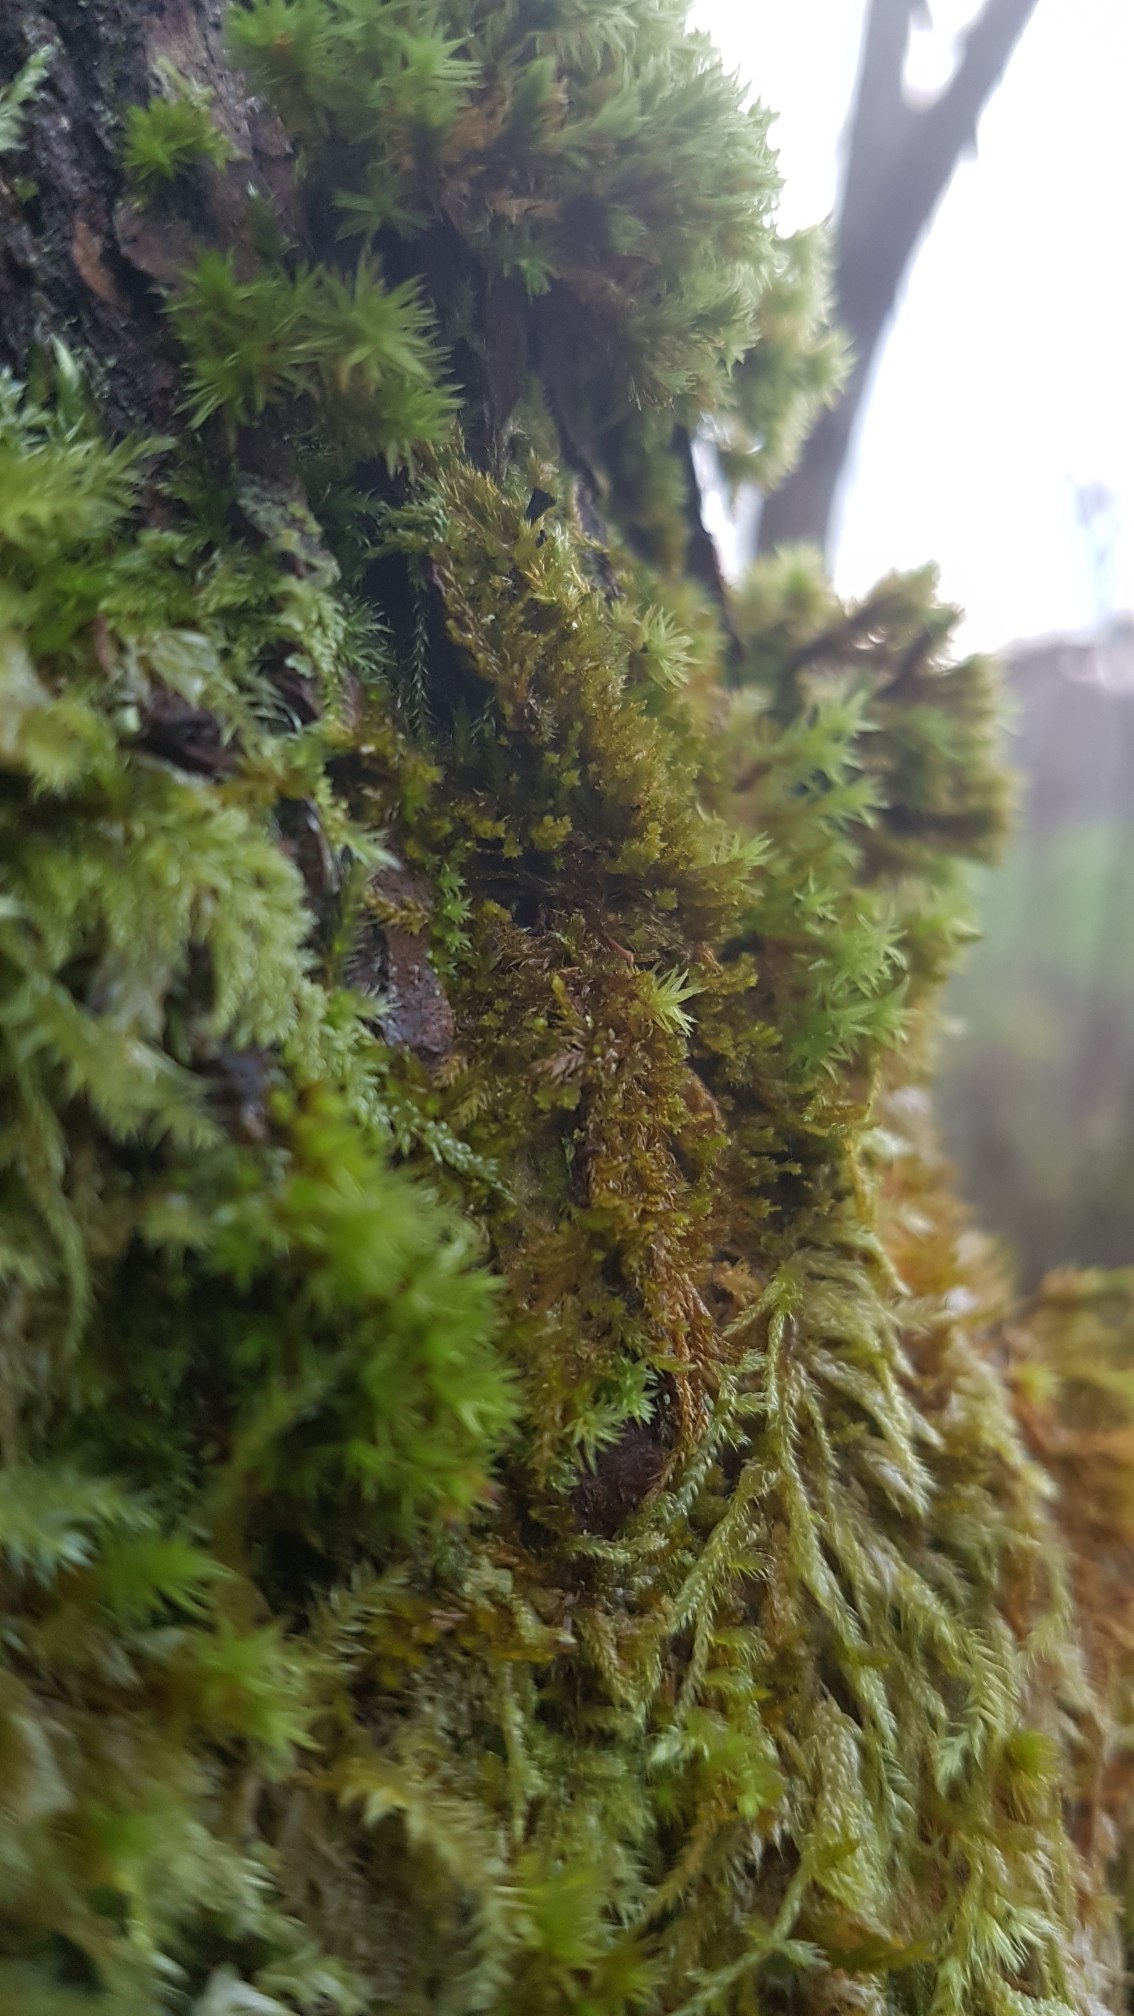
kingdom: Plantae
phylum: Bryophyta
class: Bryopsida
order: Hypnales
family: Pylaisiadelphaceae
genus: Platygyrium
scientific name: Platygyrium repens
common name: Mørk yngleknop
